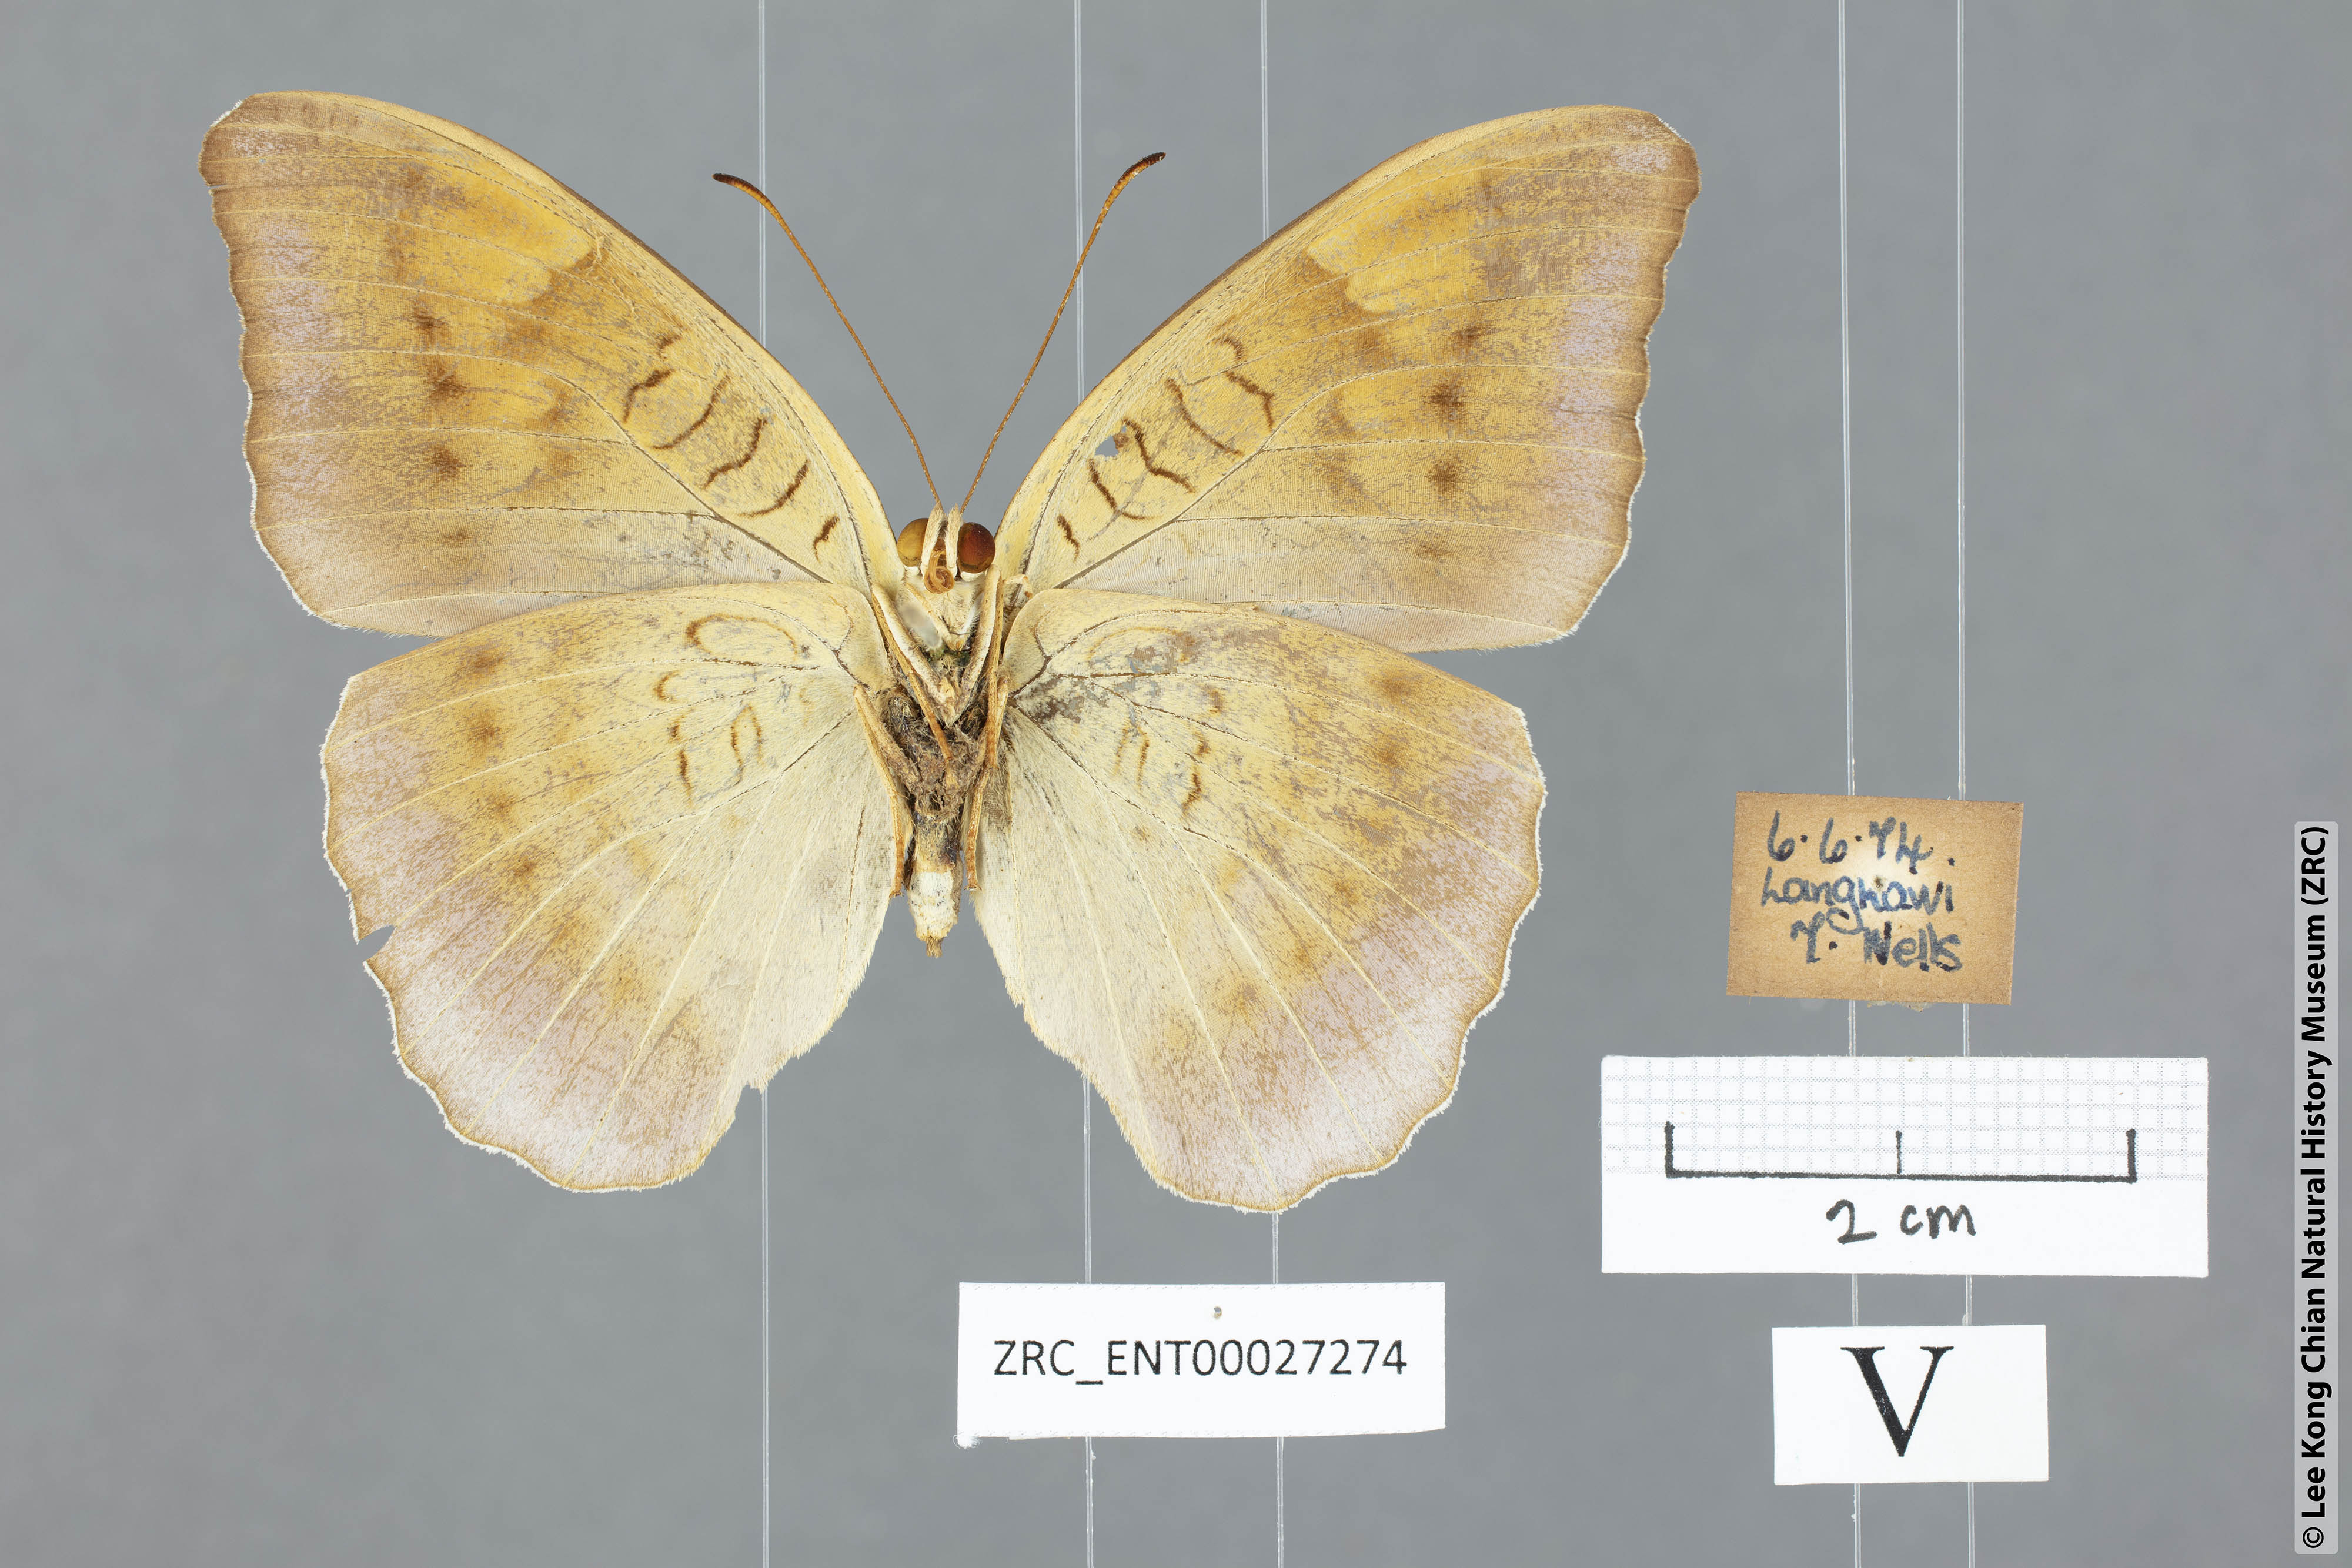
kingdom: Animalia
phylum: Arthropoda
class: Insecta
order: Lepidoptera
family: Nymphalidae
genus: Tanaecia
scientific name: Tanaecia flora
